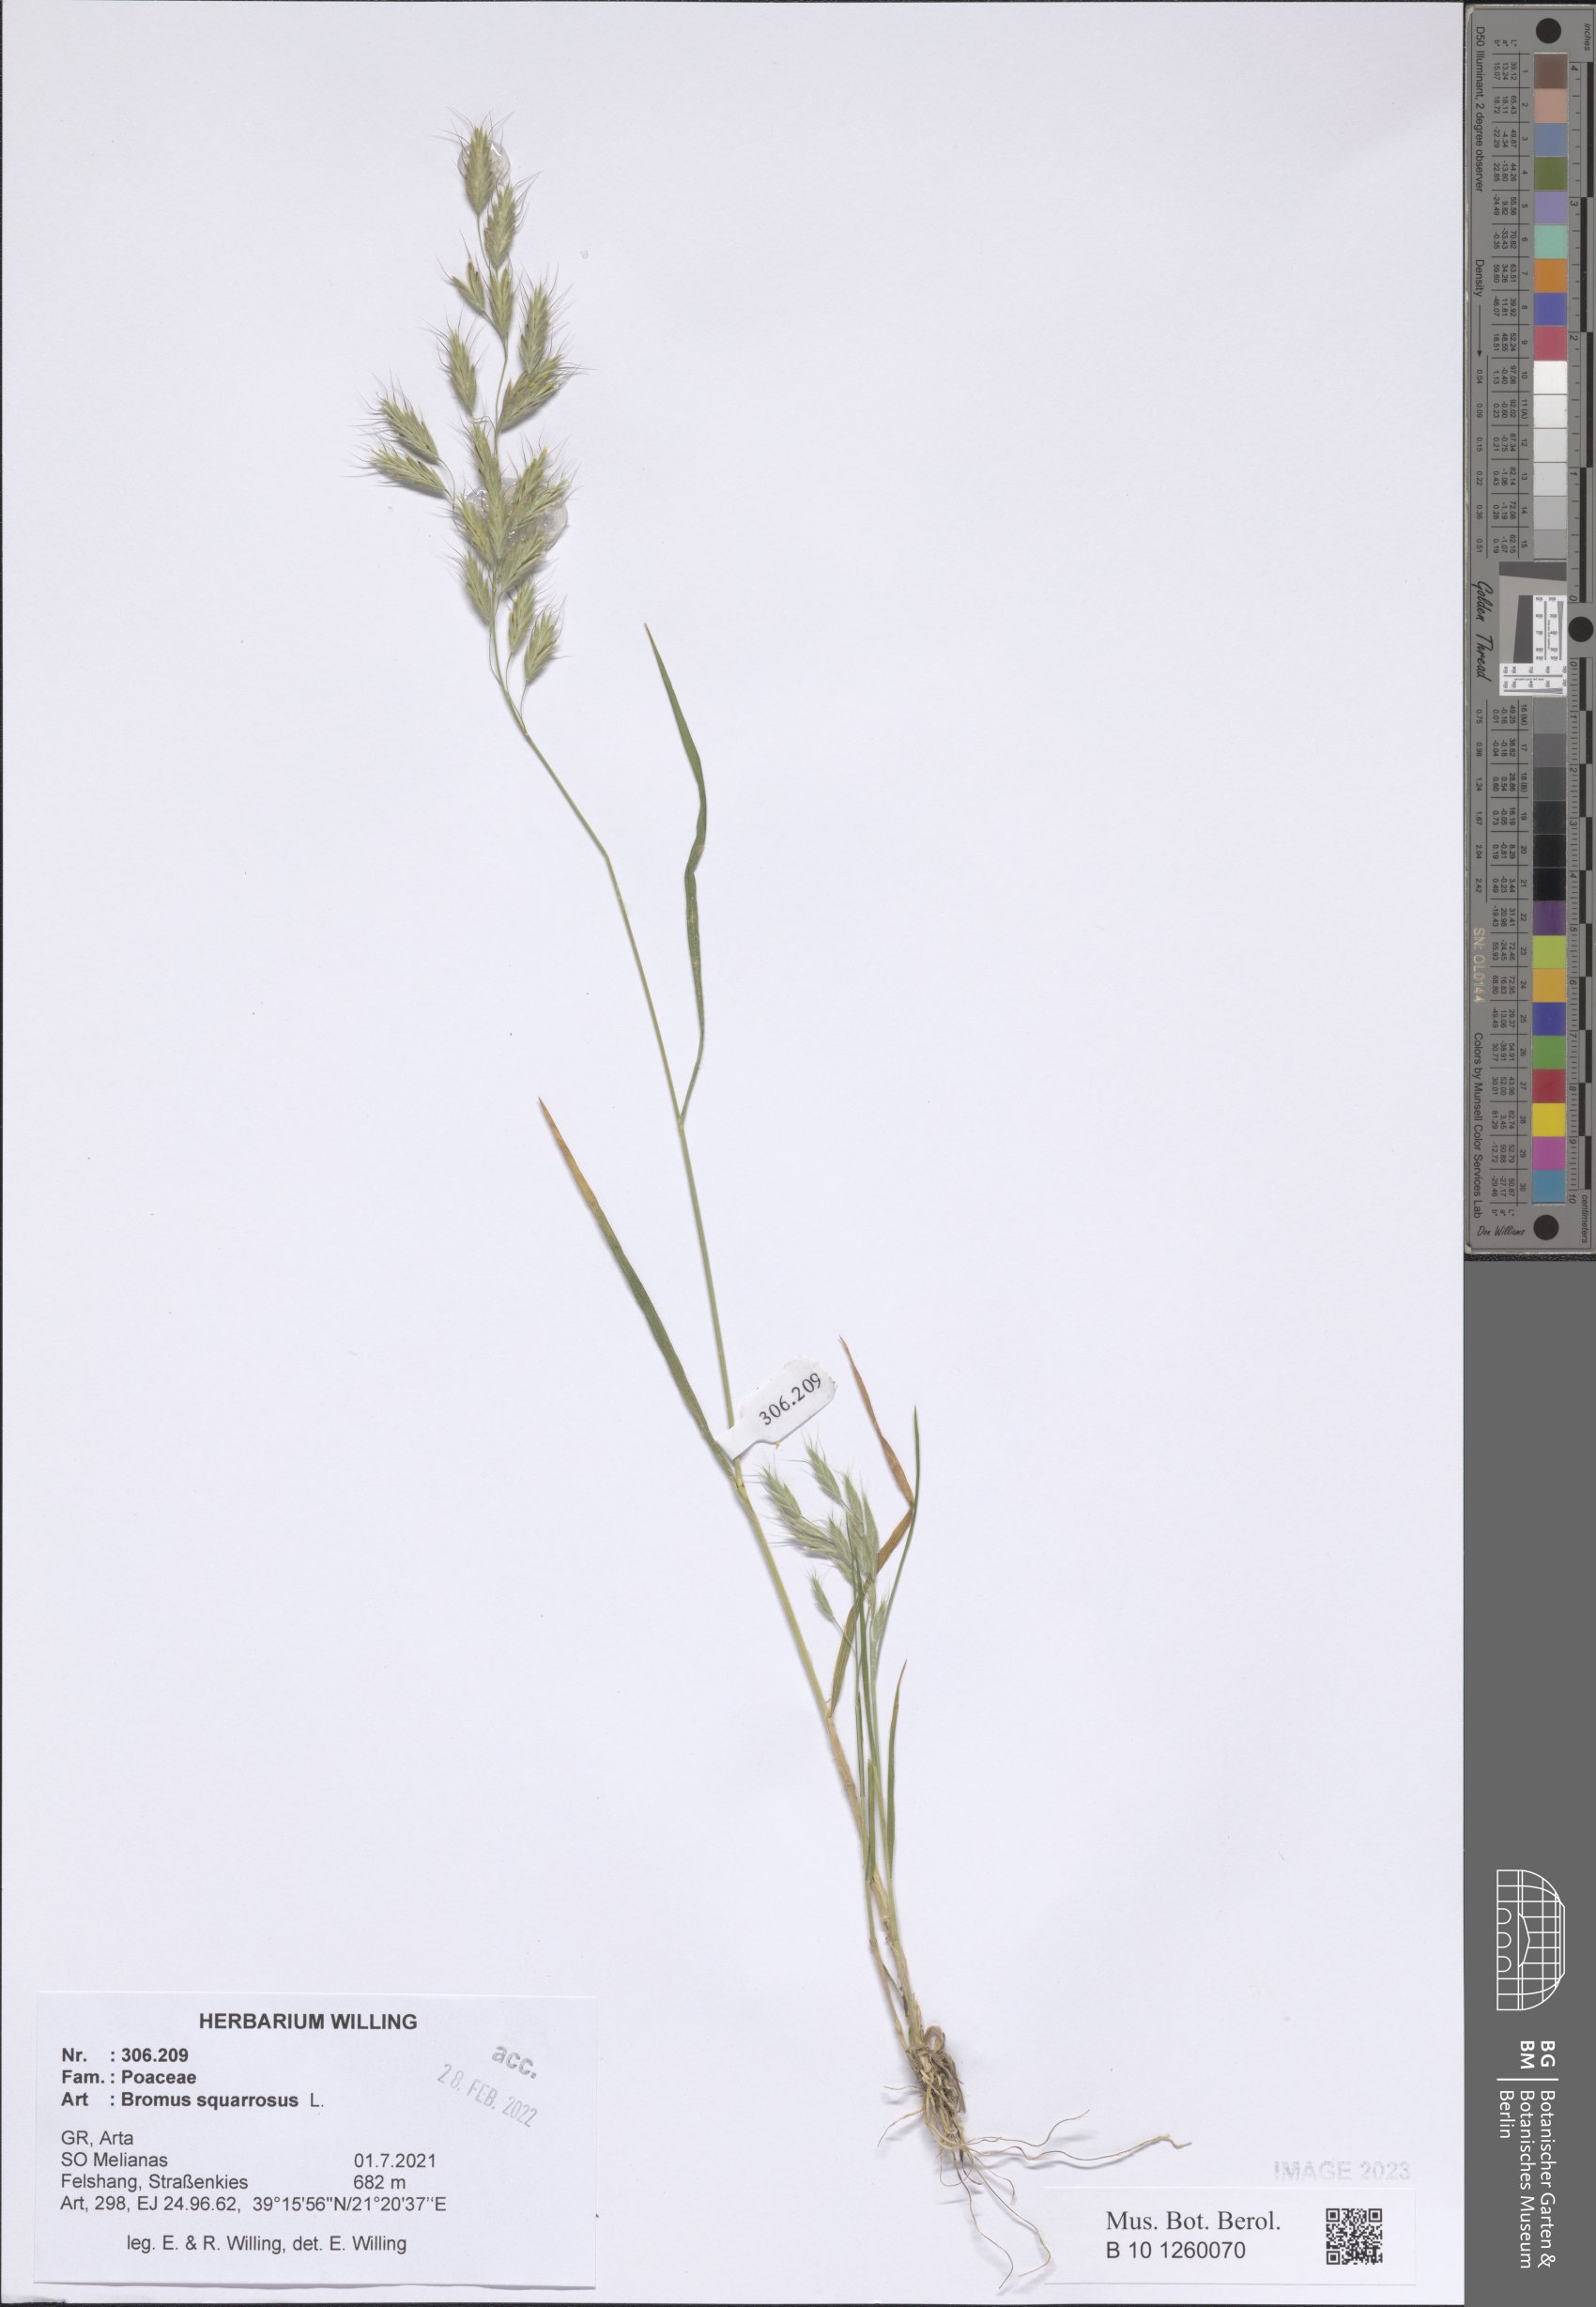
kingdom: Plantae
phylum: Tracheophyta
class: Liliopsida
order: Poales
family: Poaceae
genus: Bromus
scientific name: Bromus squarrosus
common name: Corn brome
